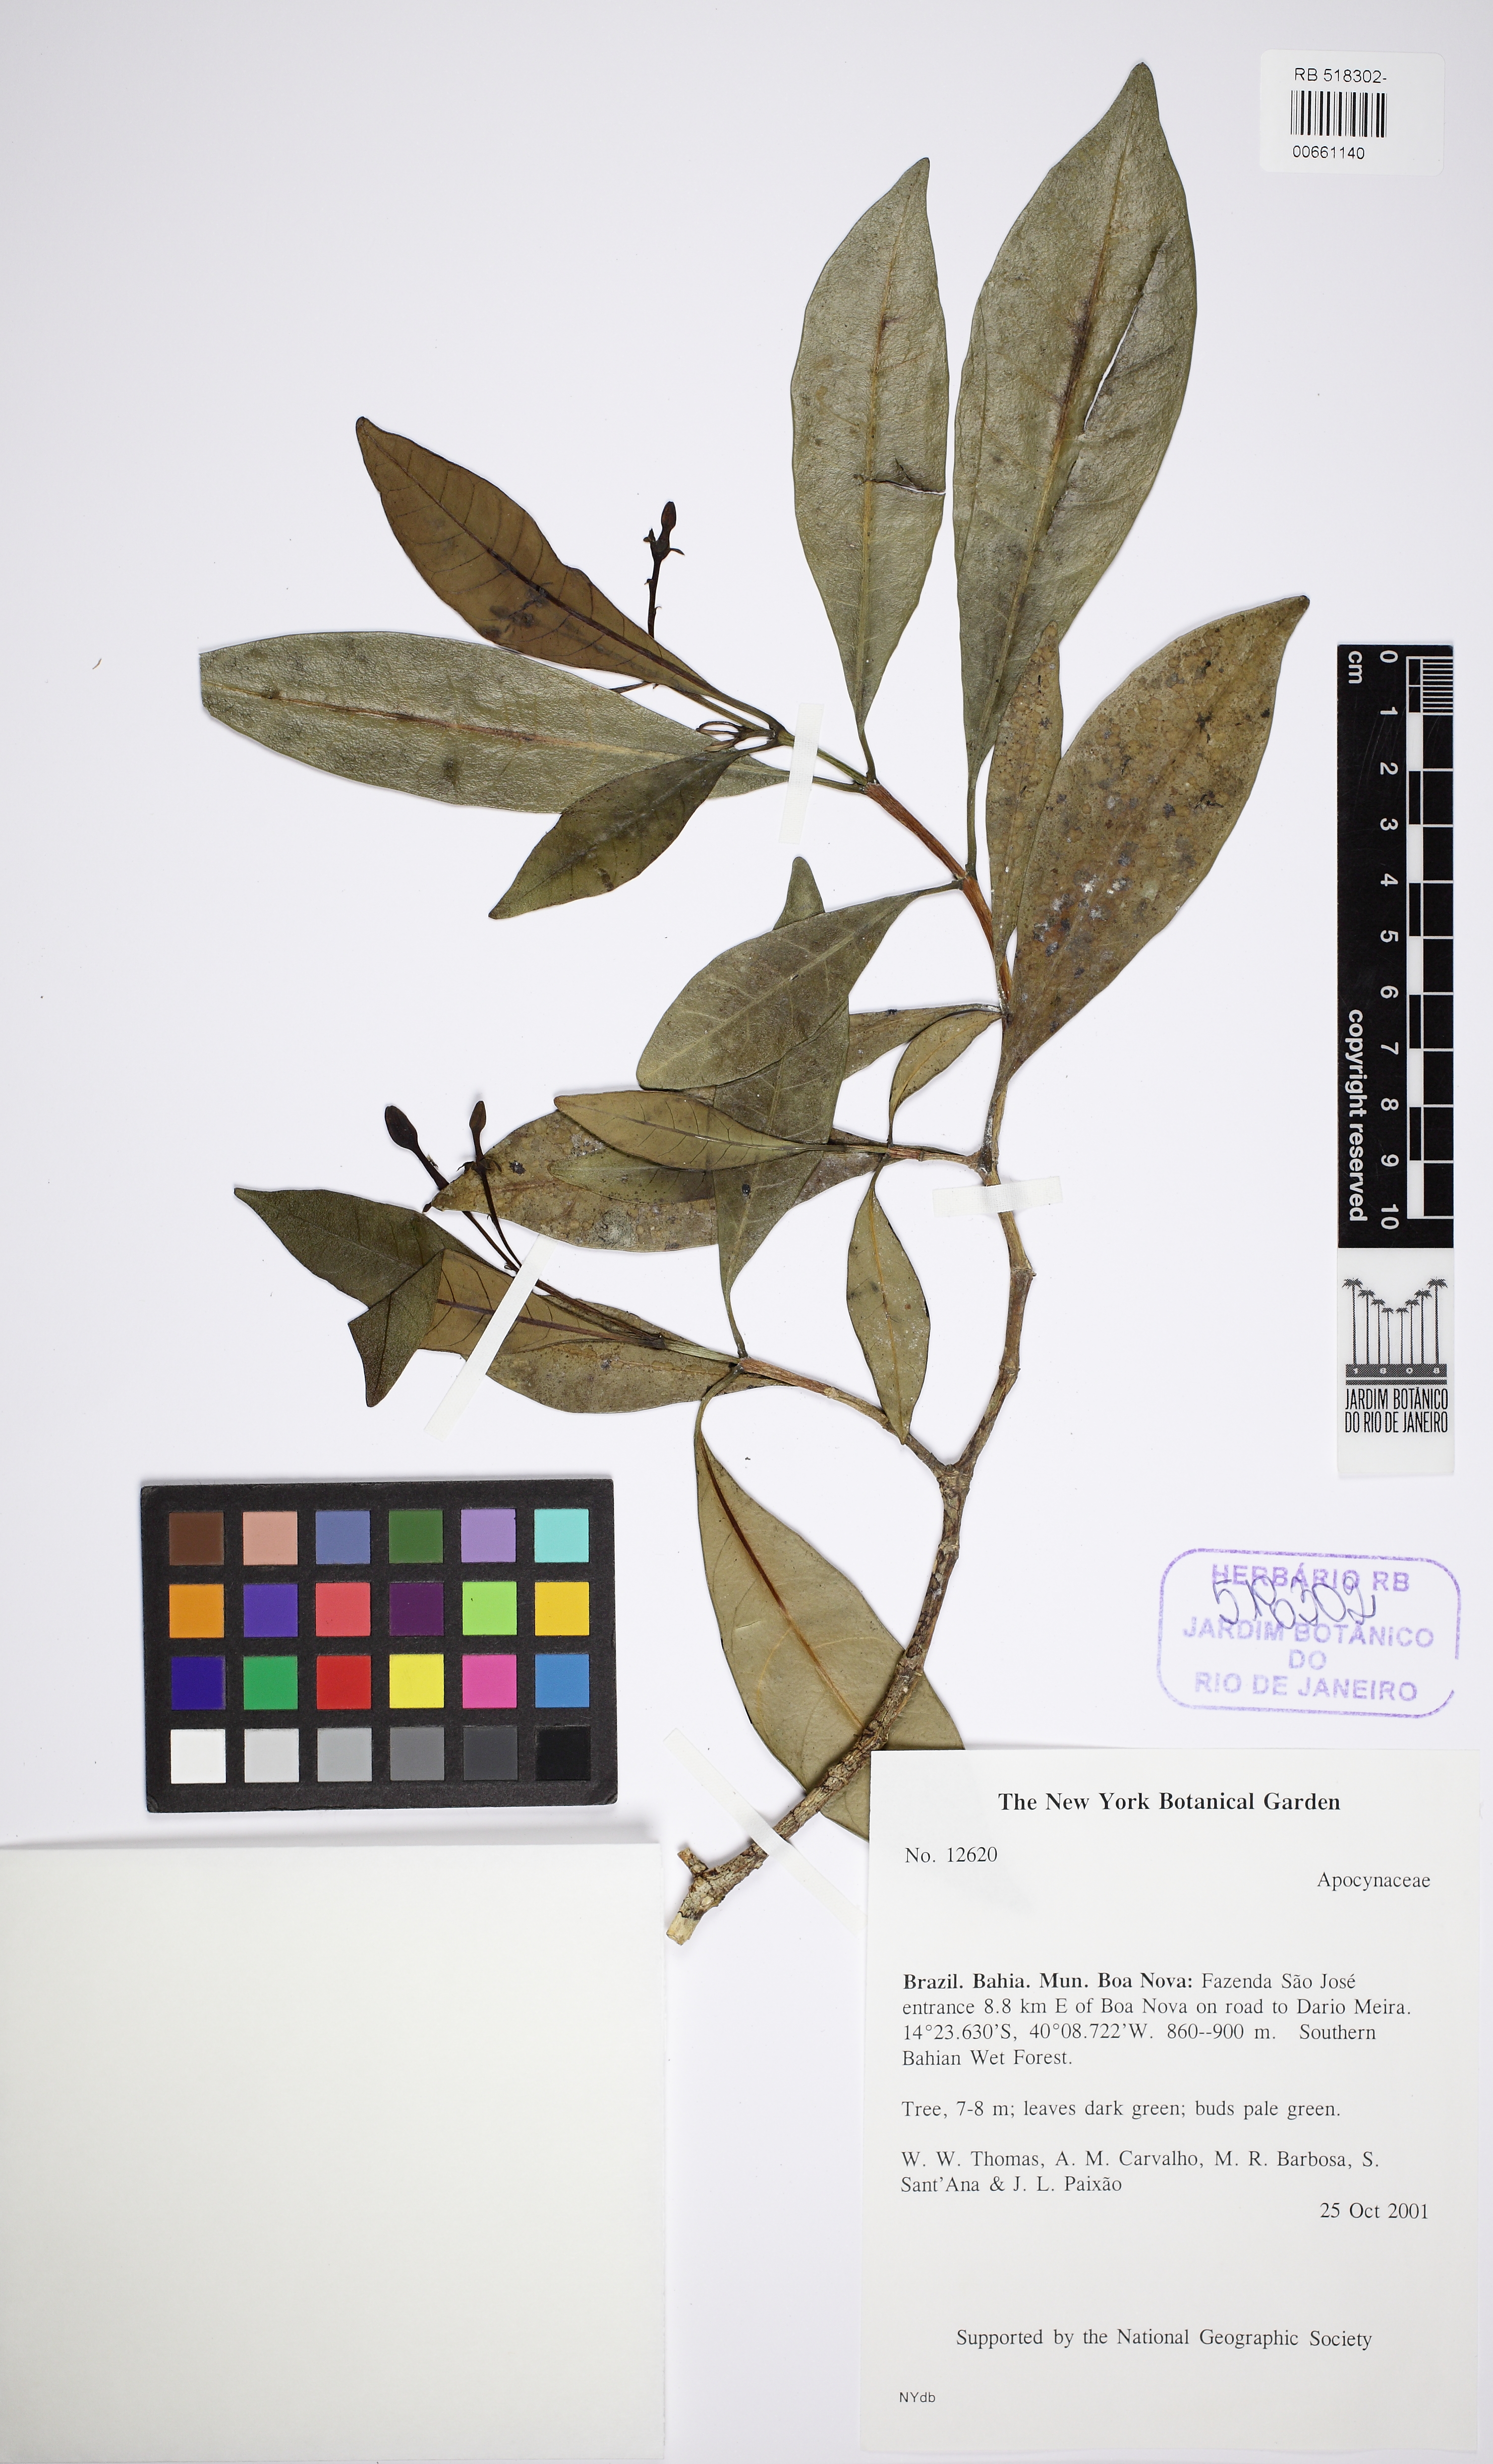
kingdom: Plantae
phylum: Tracheophyta
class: Magnoliopsida
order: Gentianales
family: Apocynaceae
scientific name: Apocynaceae
